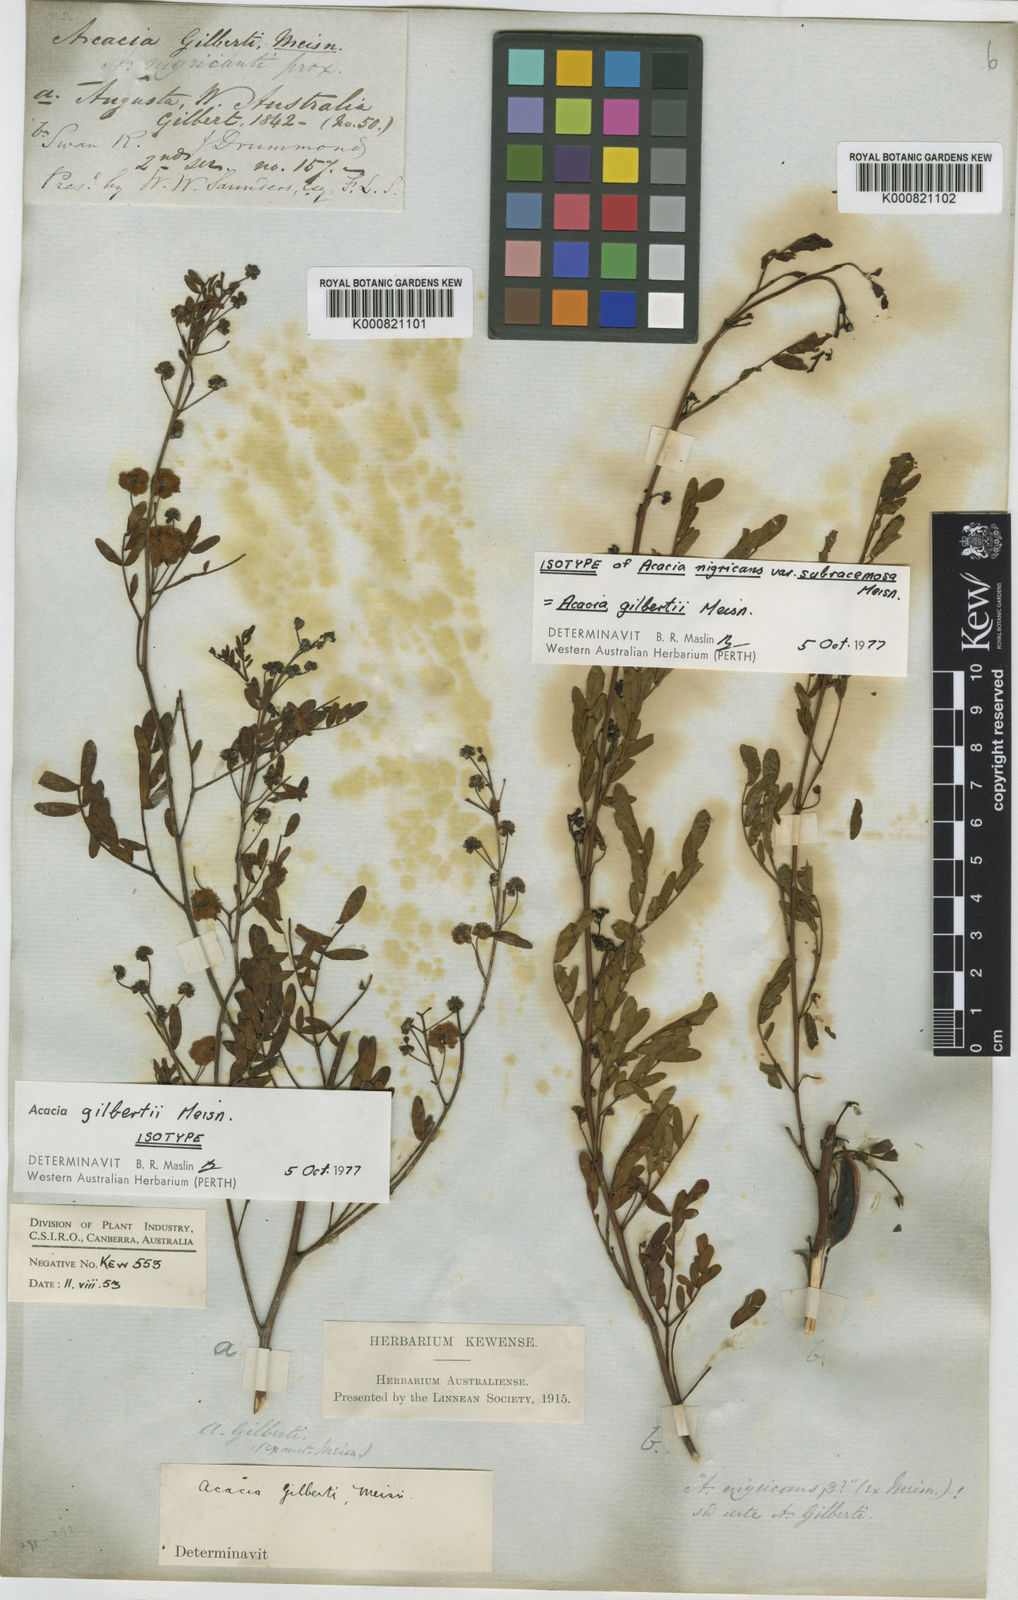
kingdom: Plantae
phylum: Tracheophyta
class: Magnoliopsida
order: Fabales
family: Fabaceae
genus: Acacia
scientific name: Acacia gilbertii
